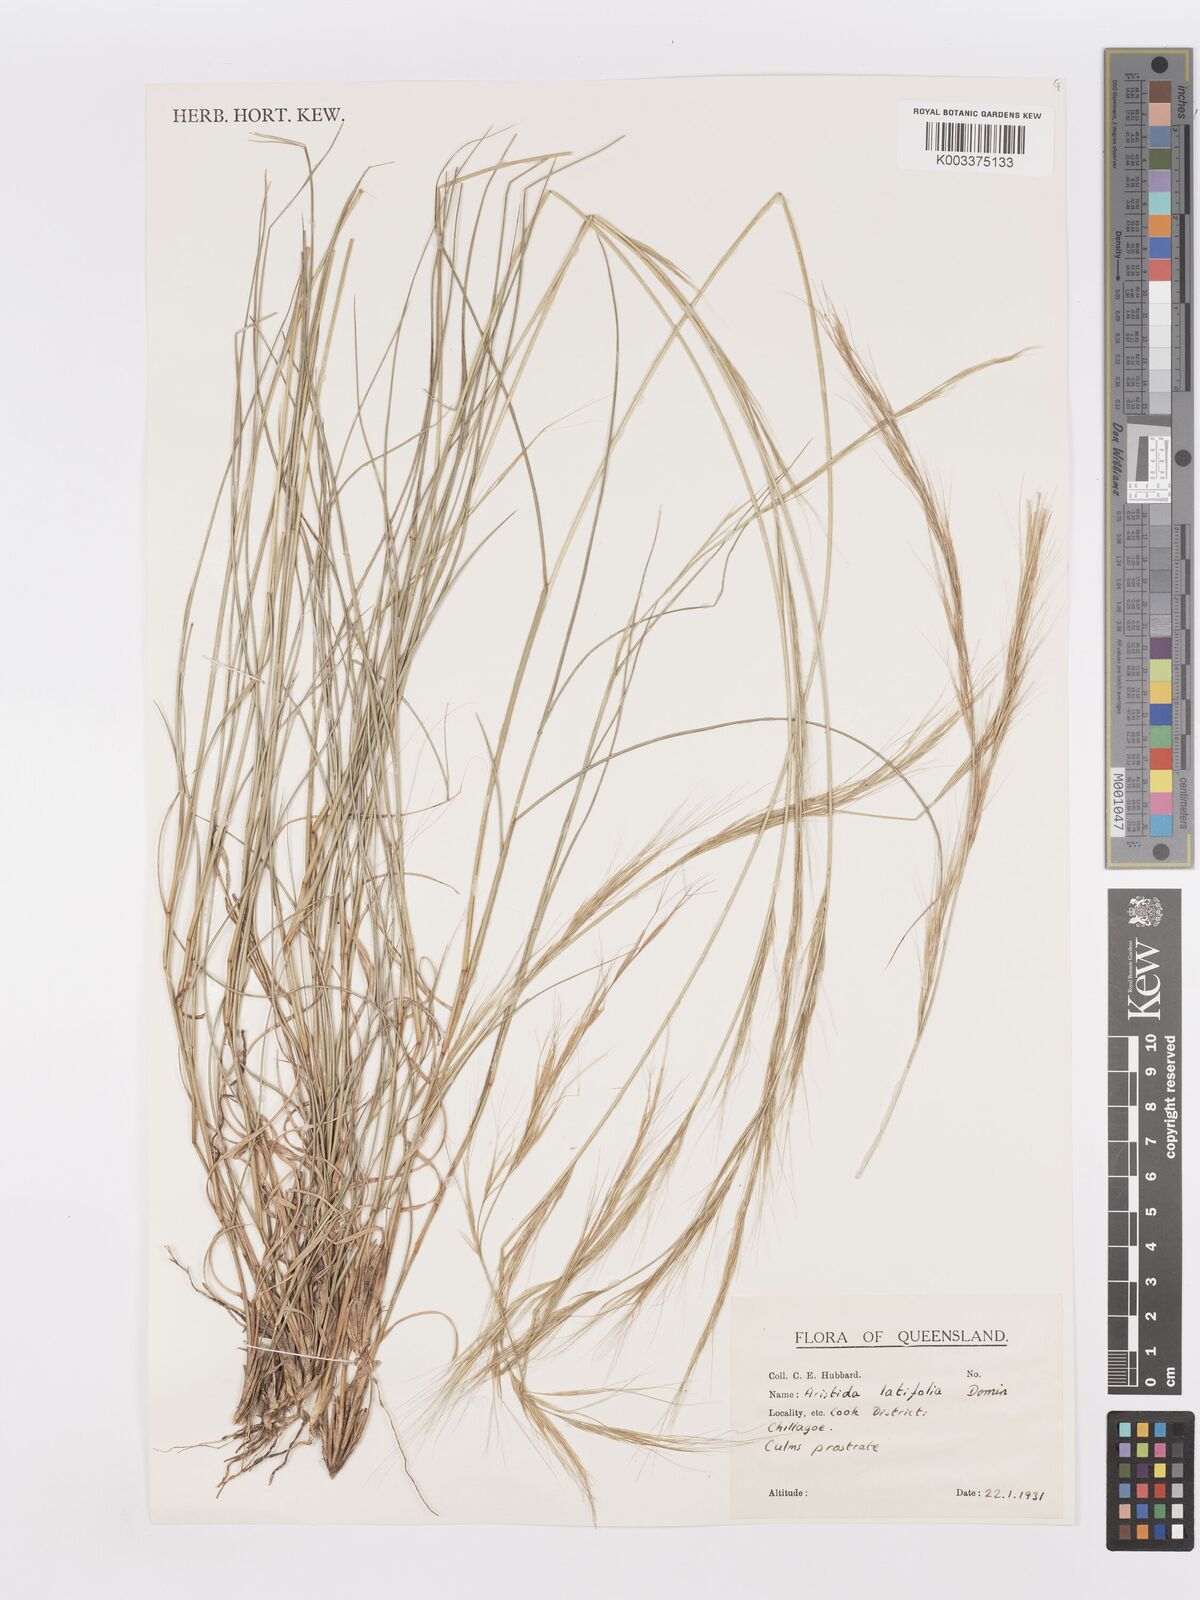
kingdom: Plantae
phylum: Tracheophyta
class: Liliopsida
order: Poales
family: Poaceae
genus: Aristida
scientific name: Aristida latifolia
